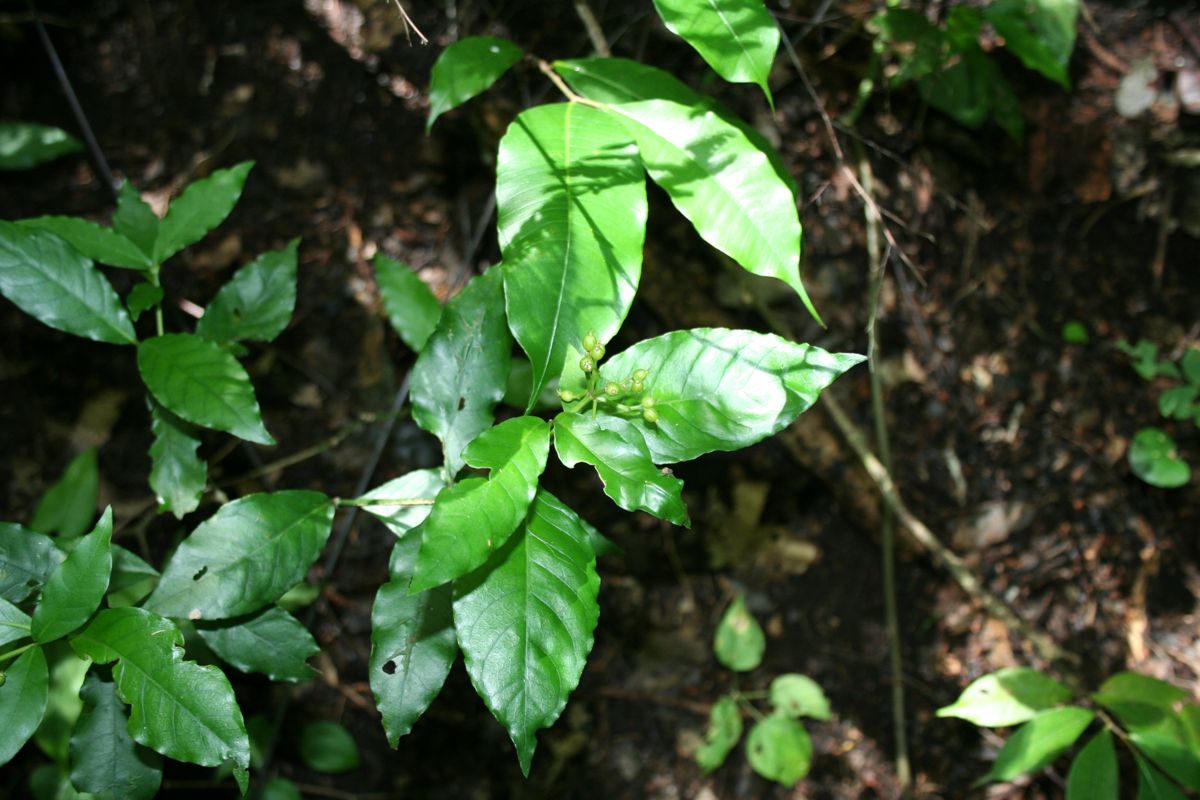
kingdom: Plantae
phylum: Tracheophyta
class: Magnoliopsida
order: Gentianales
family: Rubiaceae
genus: Psychotria
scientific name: Psychotria horizontalis
